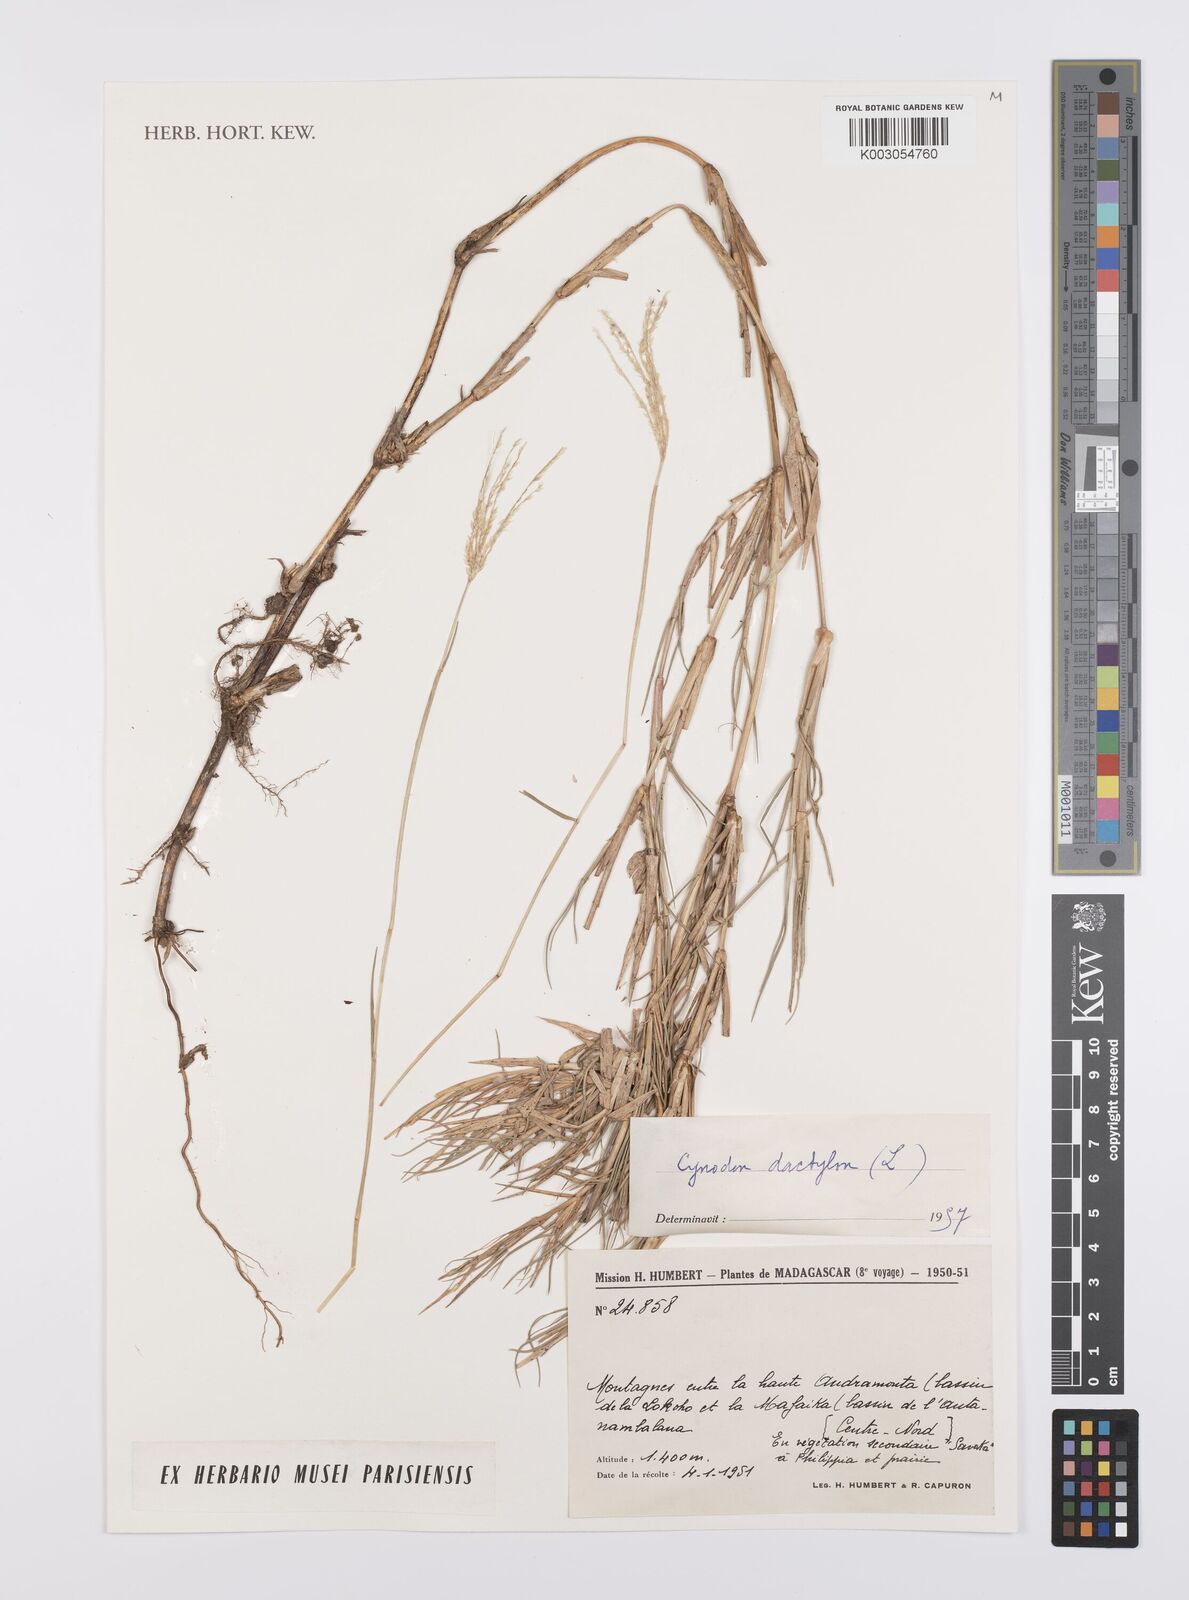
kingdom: Plantae
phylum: Tracheophyta
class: Liliopsida
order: Poales
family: Poaceae
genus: Cynodon
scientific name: Cynodon dactylon
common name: Bermuda grass
